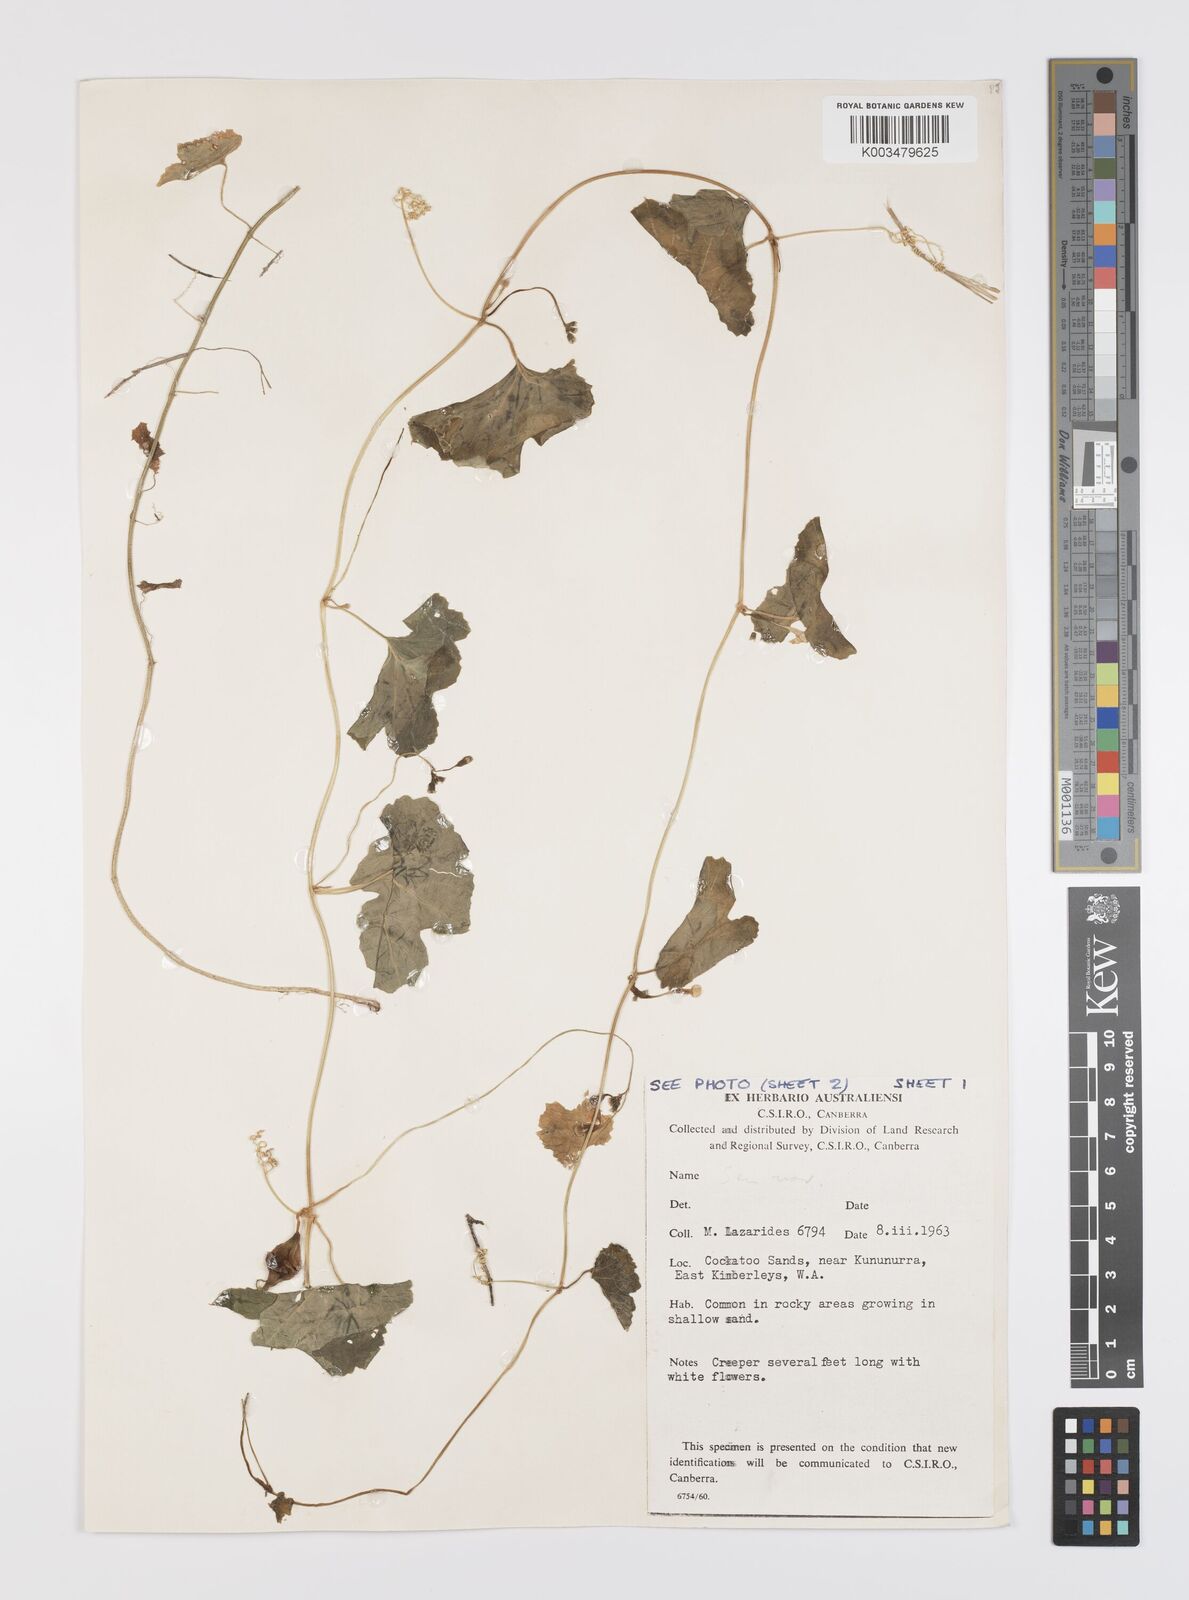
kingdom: Plantae
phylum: Tracheophyta
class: Magnoliopsida
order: Cucurbitales
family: Cucurbitaceae
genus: Trichosanthes
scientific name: Trichosanthes cucumerina
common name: Snakegourd
